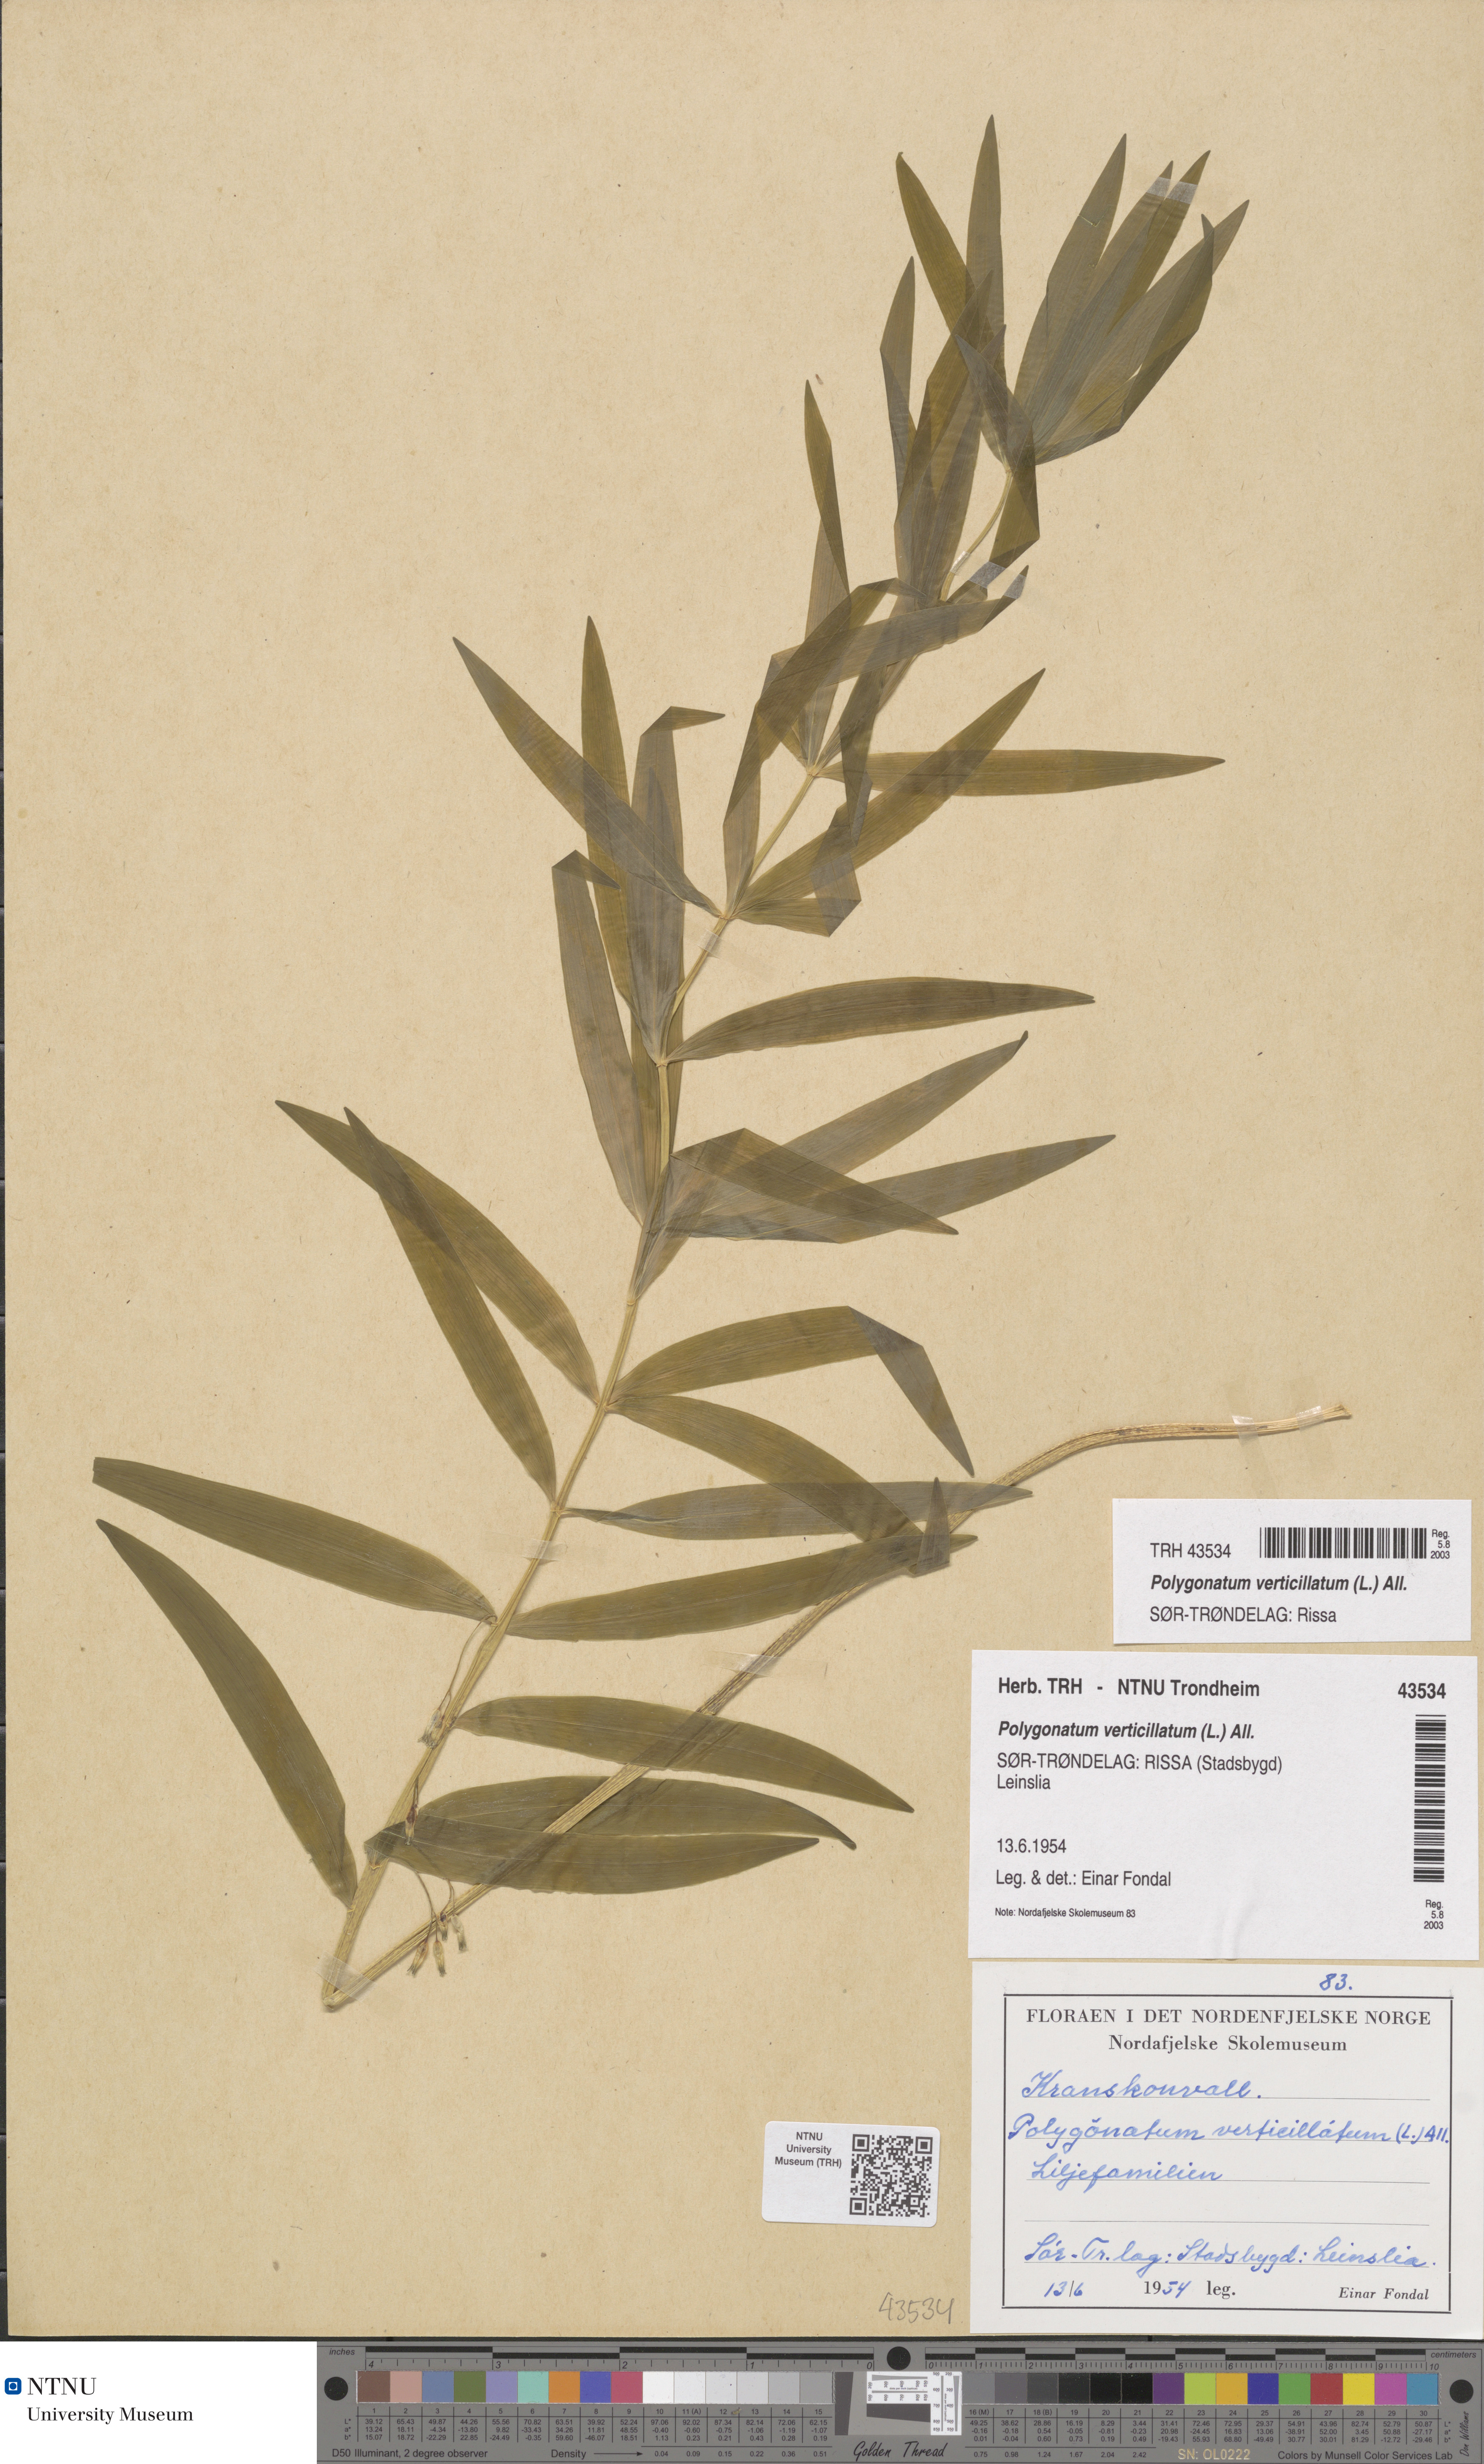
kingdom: Plantae
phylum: Tracheophyta
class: Liliopsida
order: Asparagales
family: Asparagaceae
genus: Polygonatum
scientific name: Polygonatum verticillatum
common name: Whorled solomon's-seal
